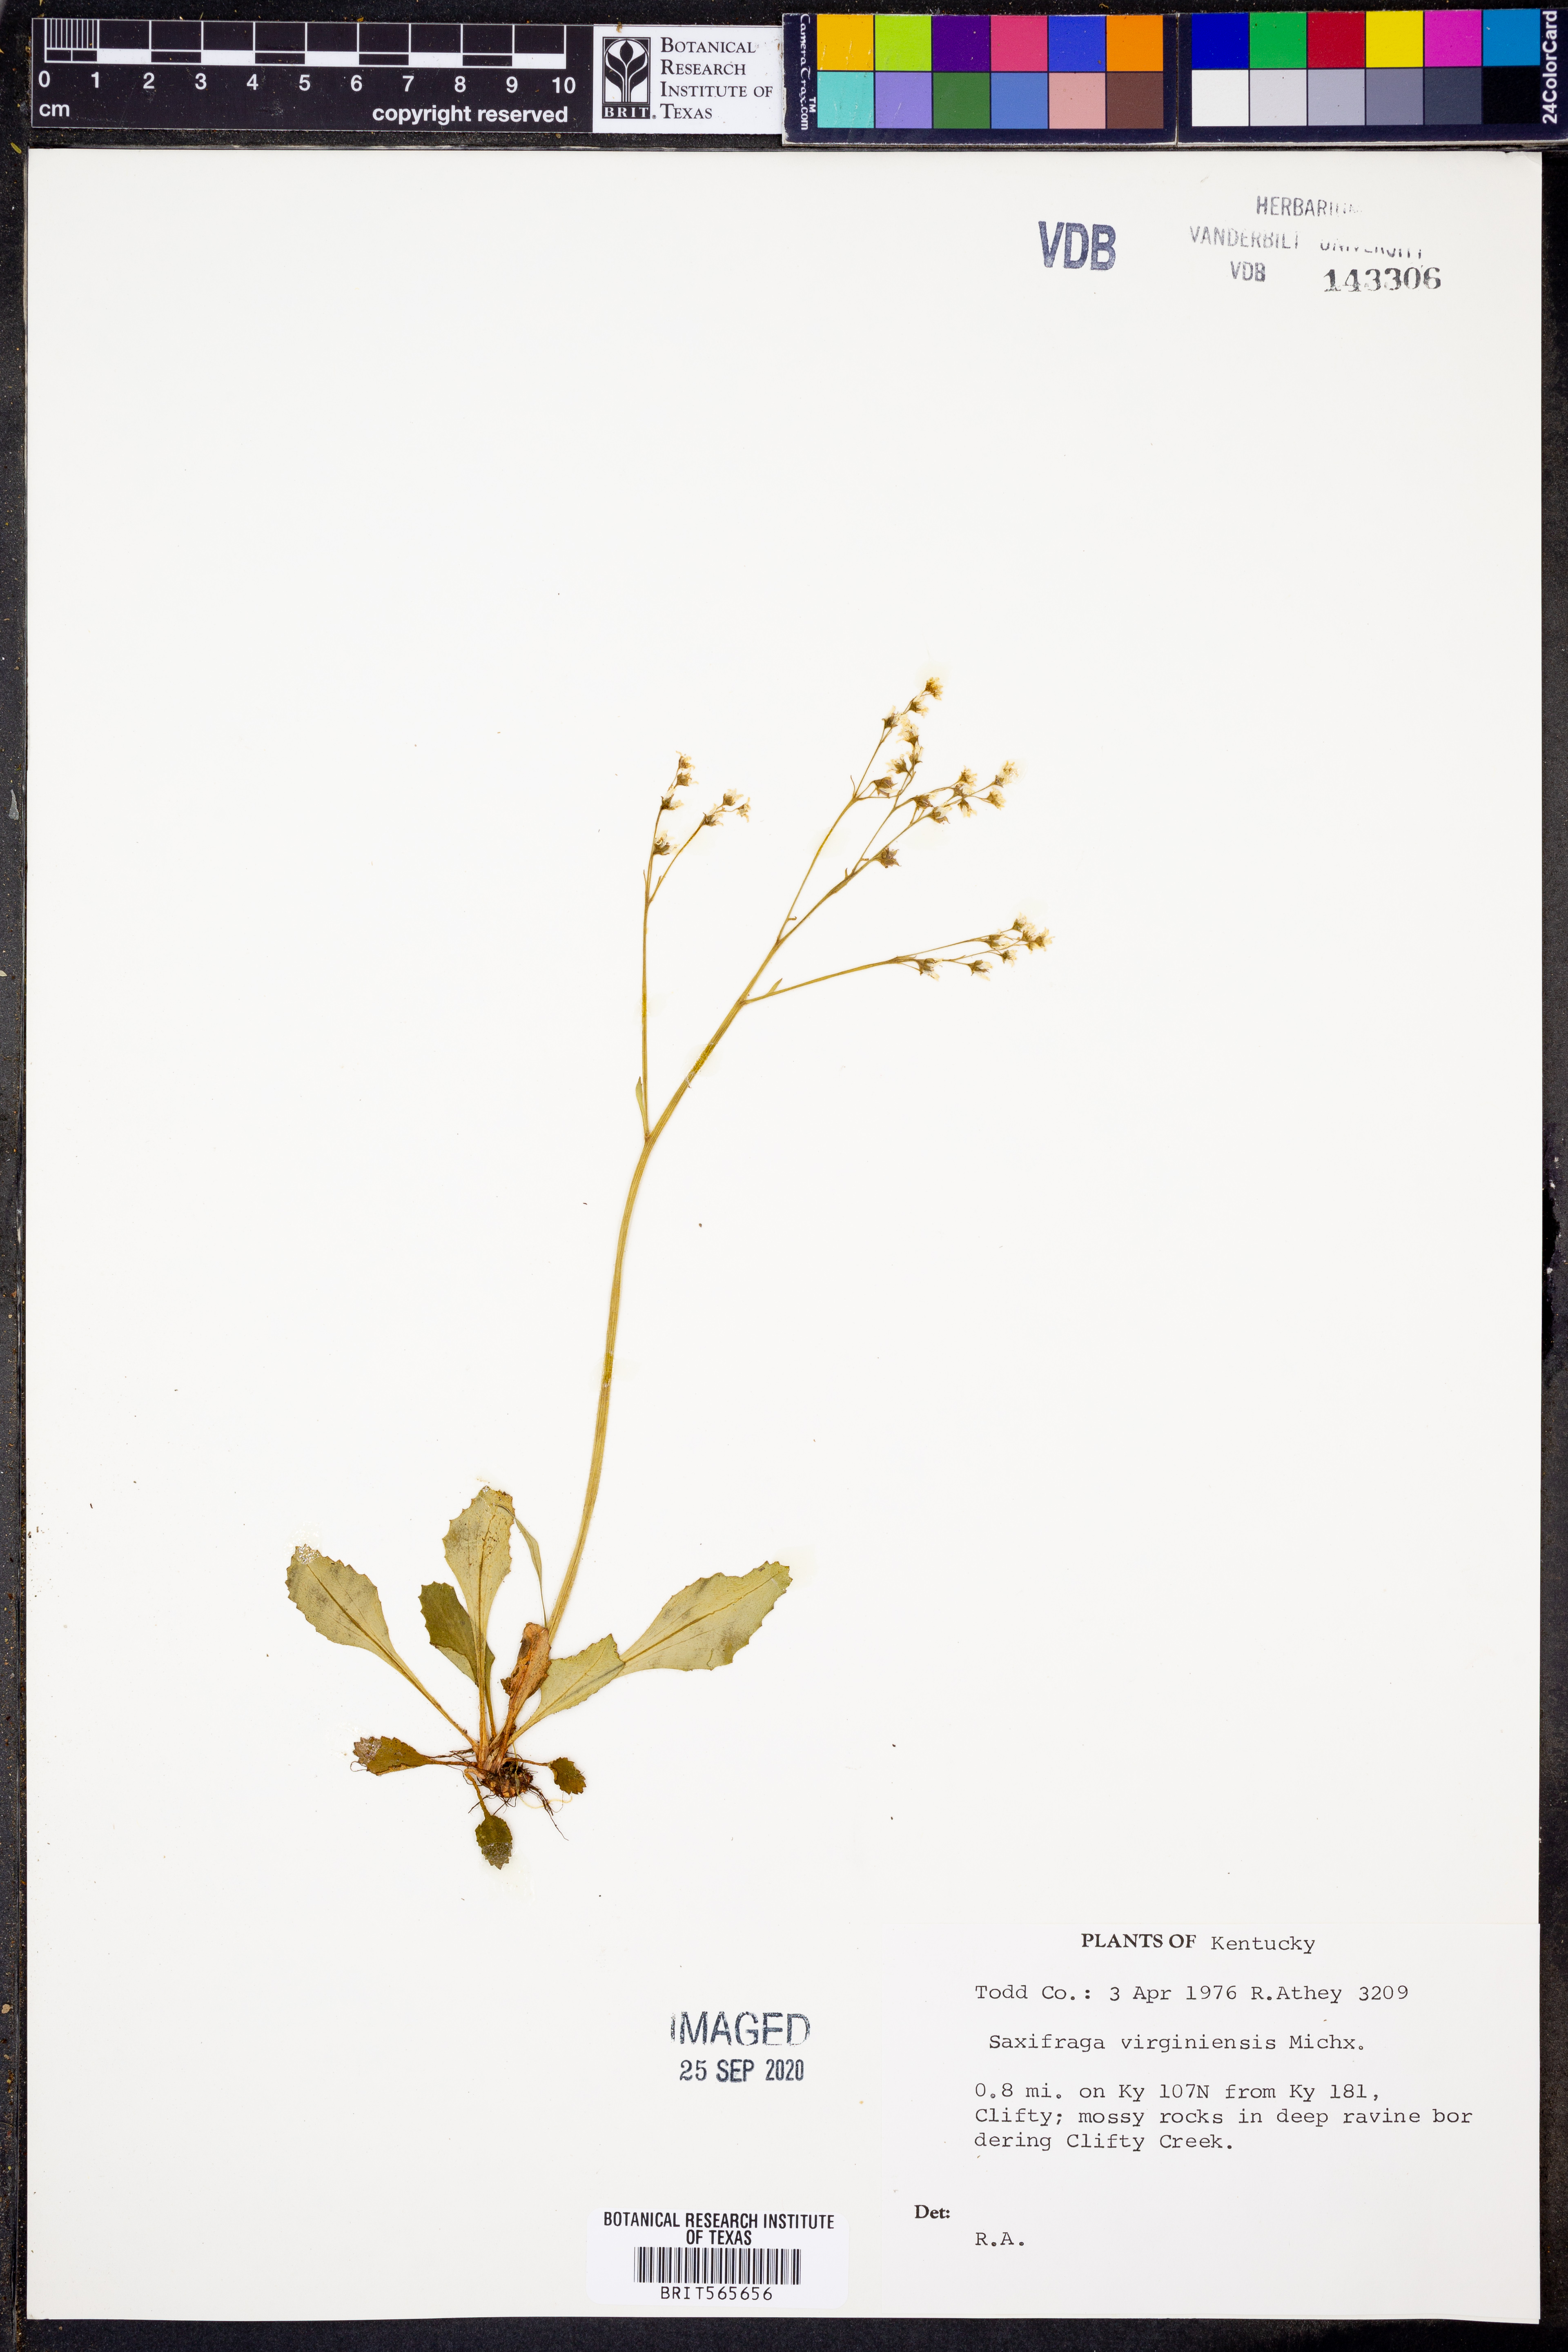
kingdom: Plantae
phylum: Tracheophyta
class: Magnoliopsida
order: Saxifragales
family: Saxifragaceae
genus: Micranthes
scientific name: Micranthes virginiensis
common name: Early saxifrage
